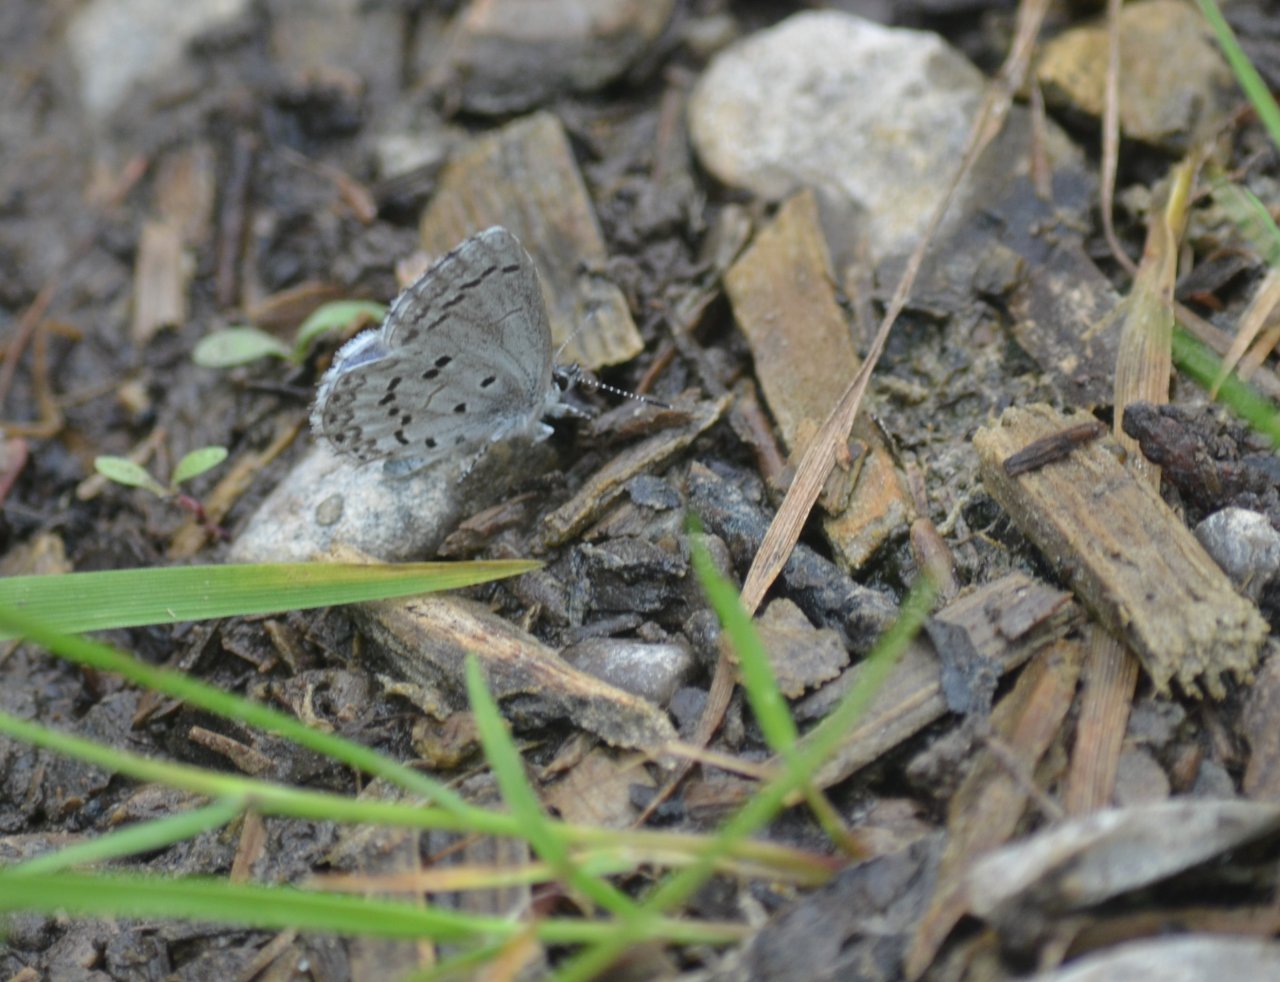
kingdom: Animalia
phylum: Arthropoda
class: Insecta
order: Lepidoptera
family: Lycaenidae
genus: Celastrina
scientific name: Celastrina
